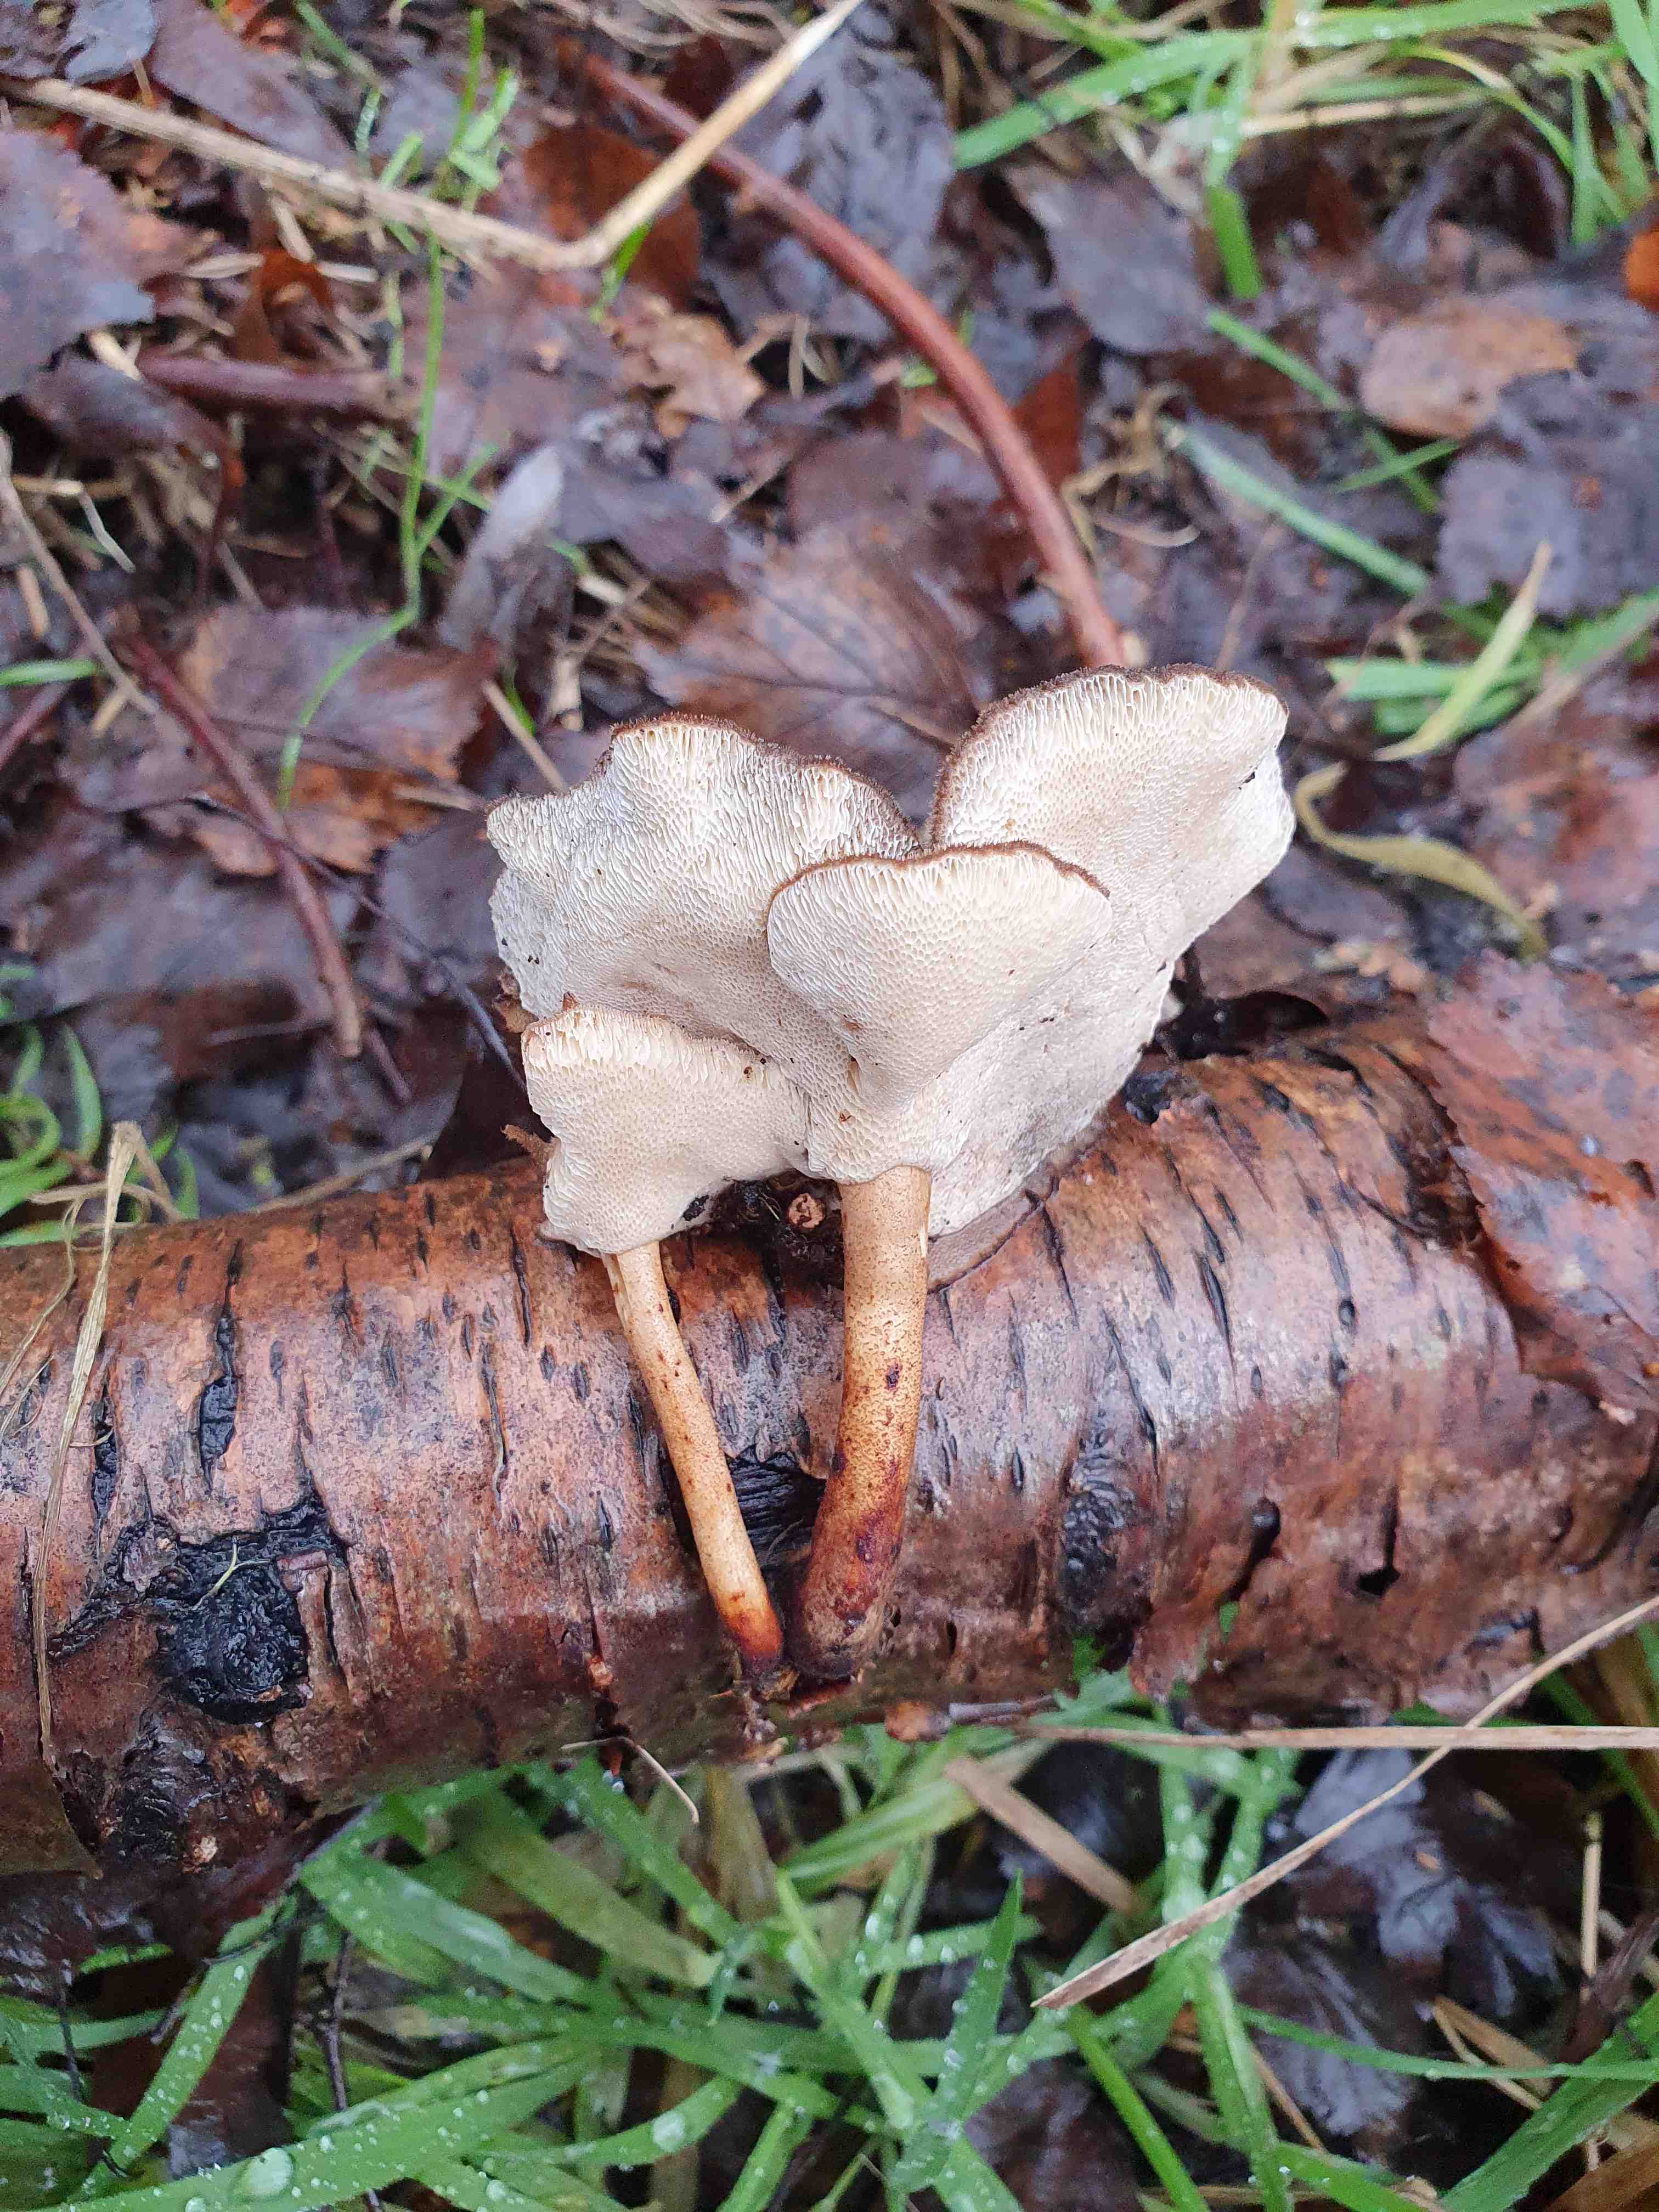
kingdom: Fungi
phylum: Basidiomycota
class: Agaricomycetes
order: Polyporales
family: Polyporaceae
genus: Lentinus
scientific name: Lentinus brumalis
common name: vinter-stilkporesvamp
